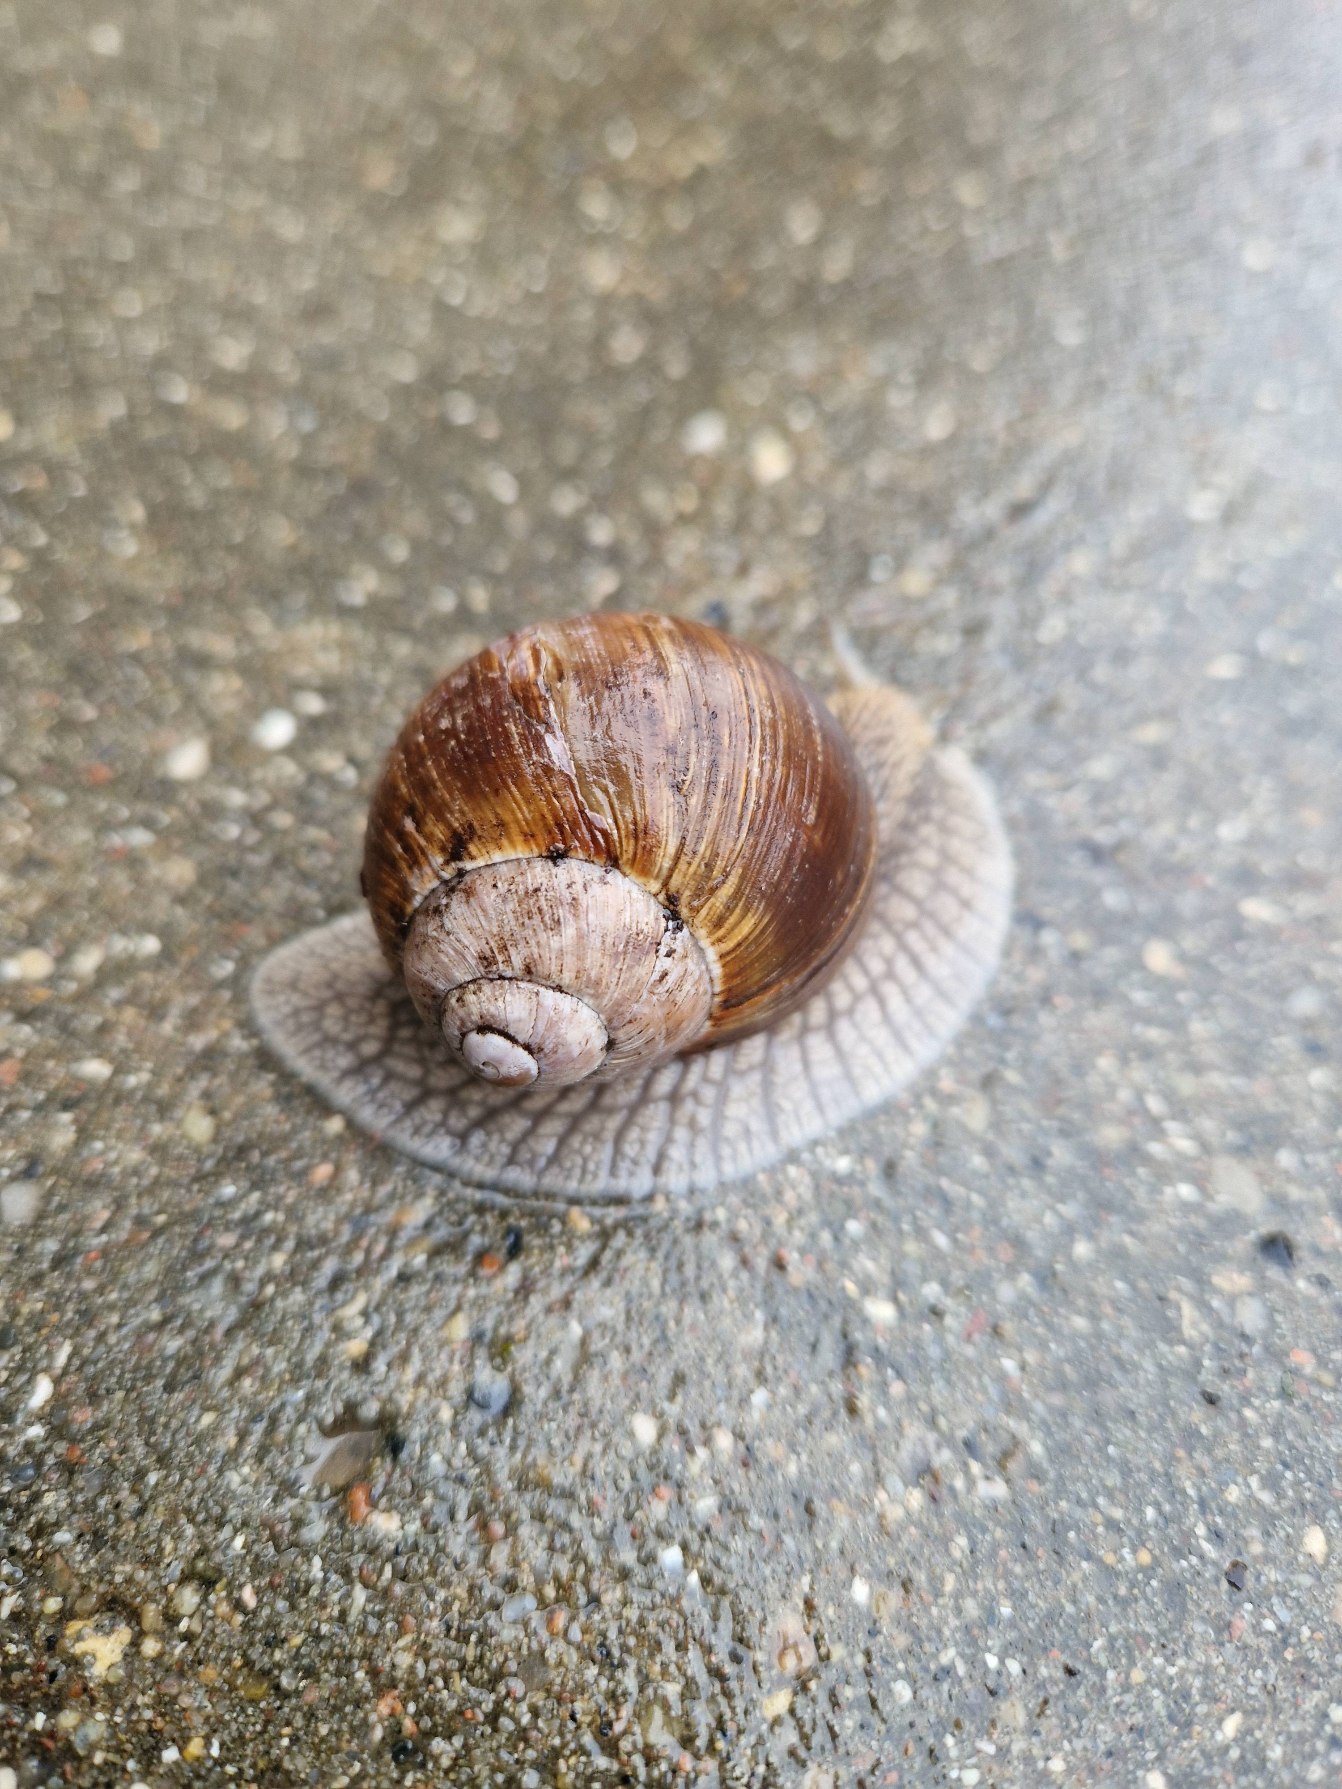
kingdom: Animalia
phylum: Mollusca
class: Gastropoda
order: Stylommatophora
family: Helicidae
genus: Helix
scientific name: Helix pomatia
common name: Vinbjergsnegl
